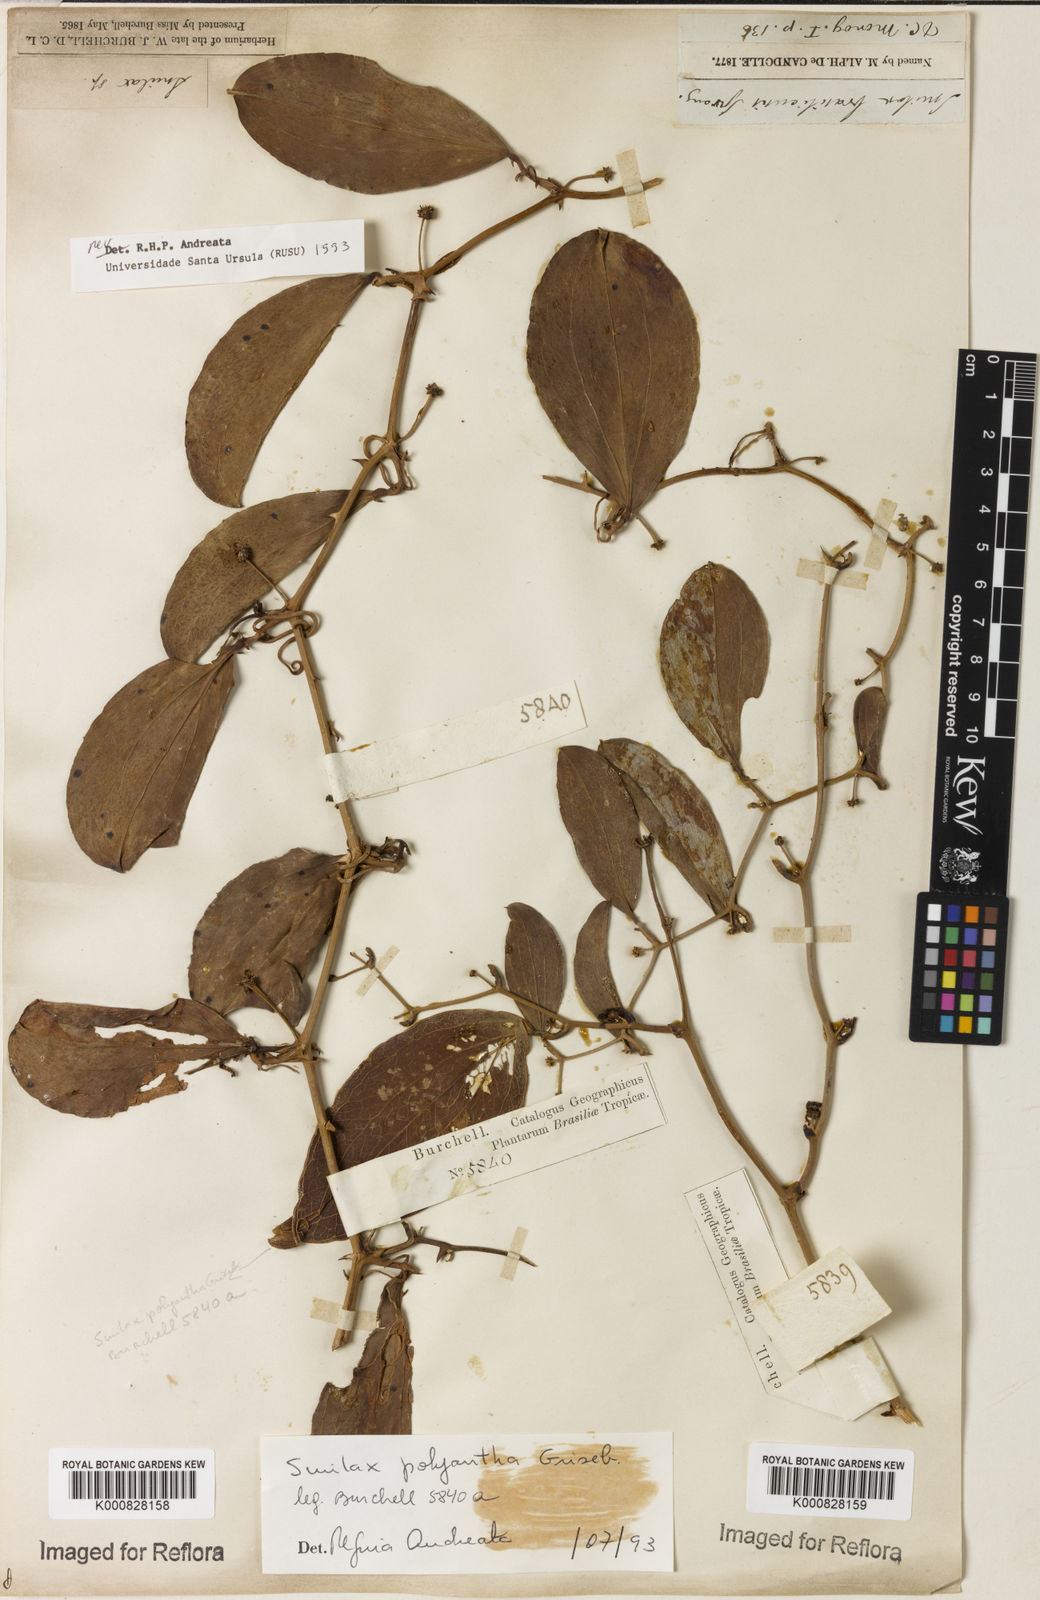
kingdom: Plantae
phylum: Tracheophyta
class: Liliopsida
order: Liliales
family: Smilacaceae
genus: Smilax
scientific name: Smilax polyantha
